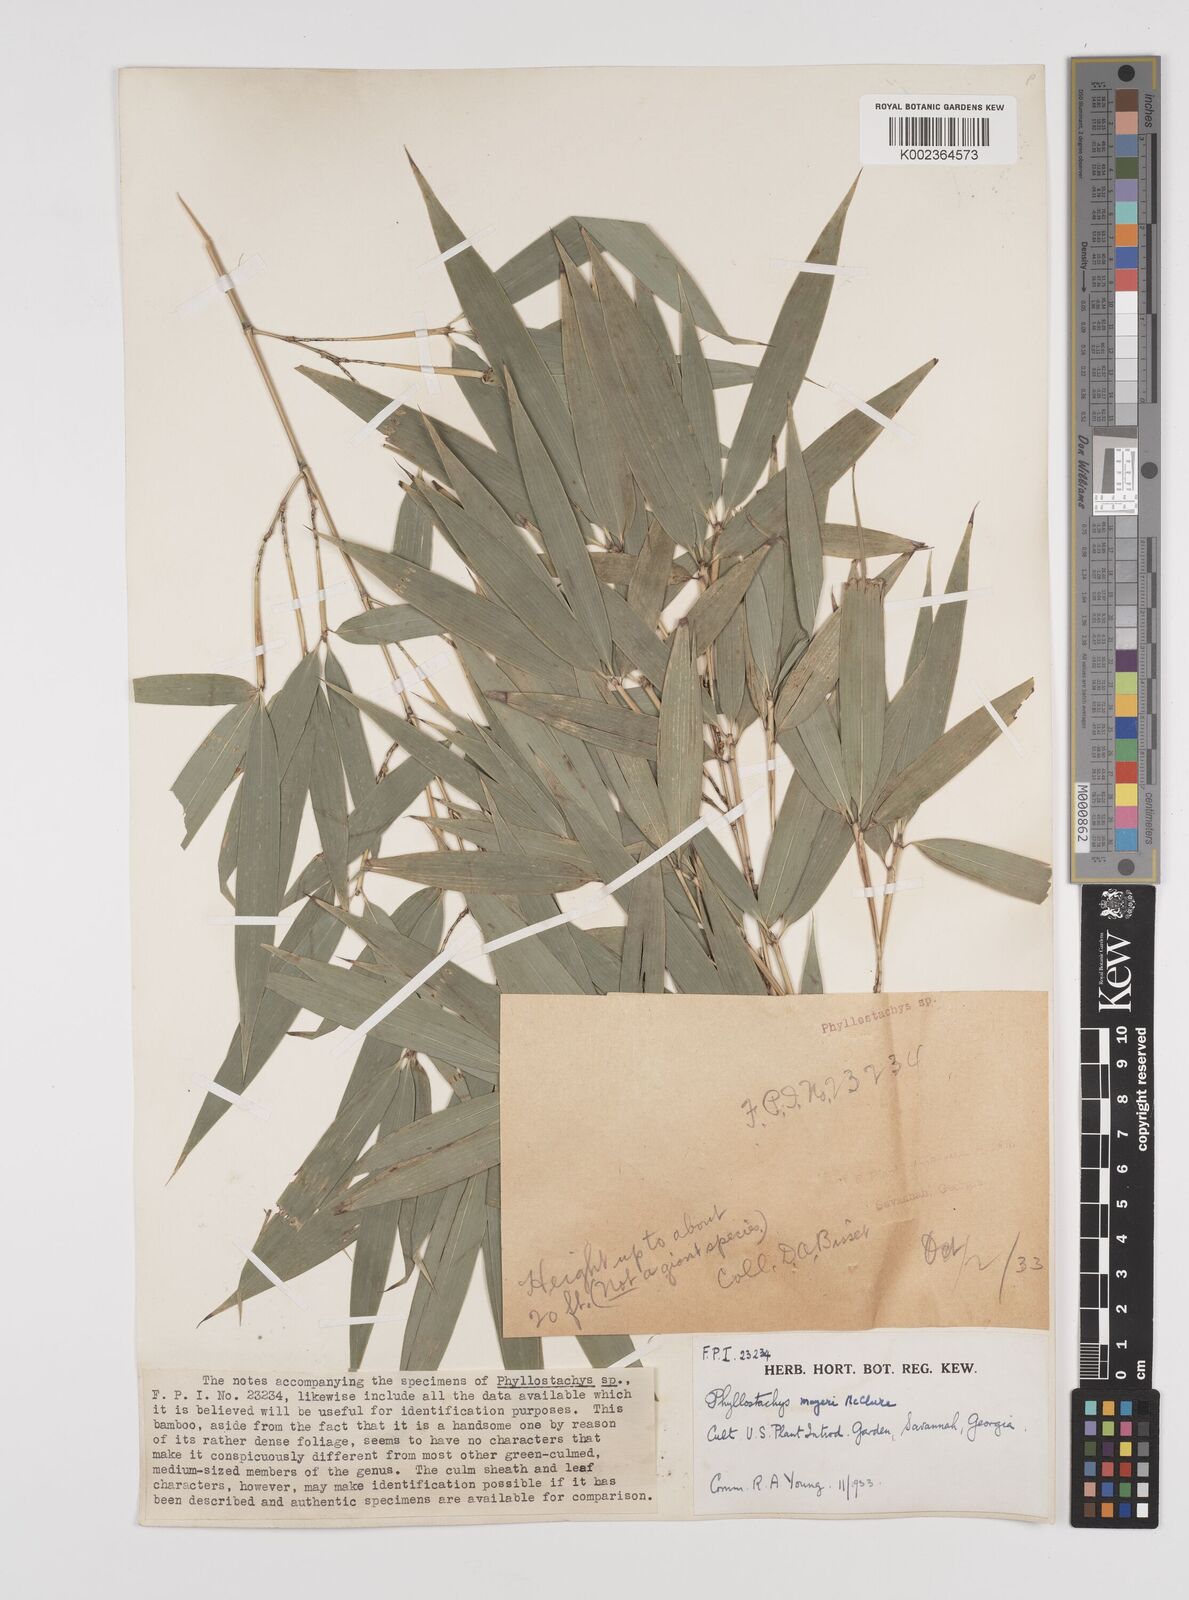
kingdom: Plantae
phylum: Tracheophyta
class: Liliopsida
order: Poales
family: Poaceae
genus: Phyllostachys
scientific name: Phyllostachys meyeri
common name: Meyer's bamboo
